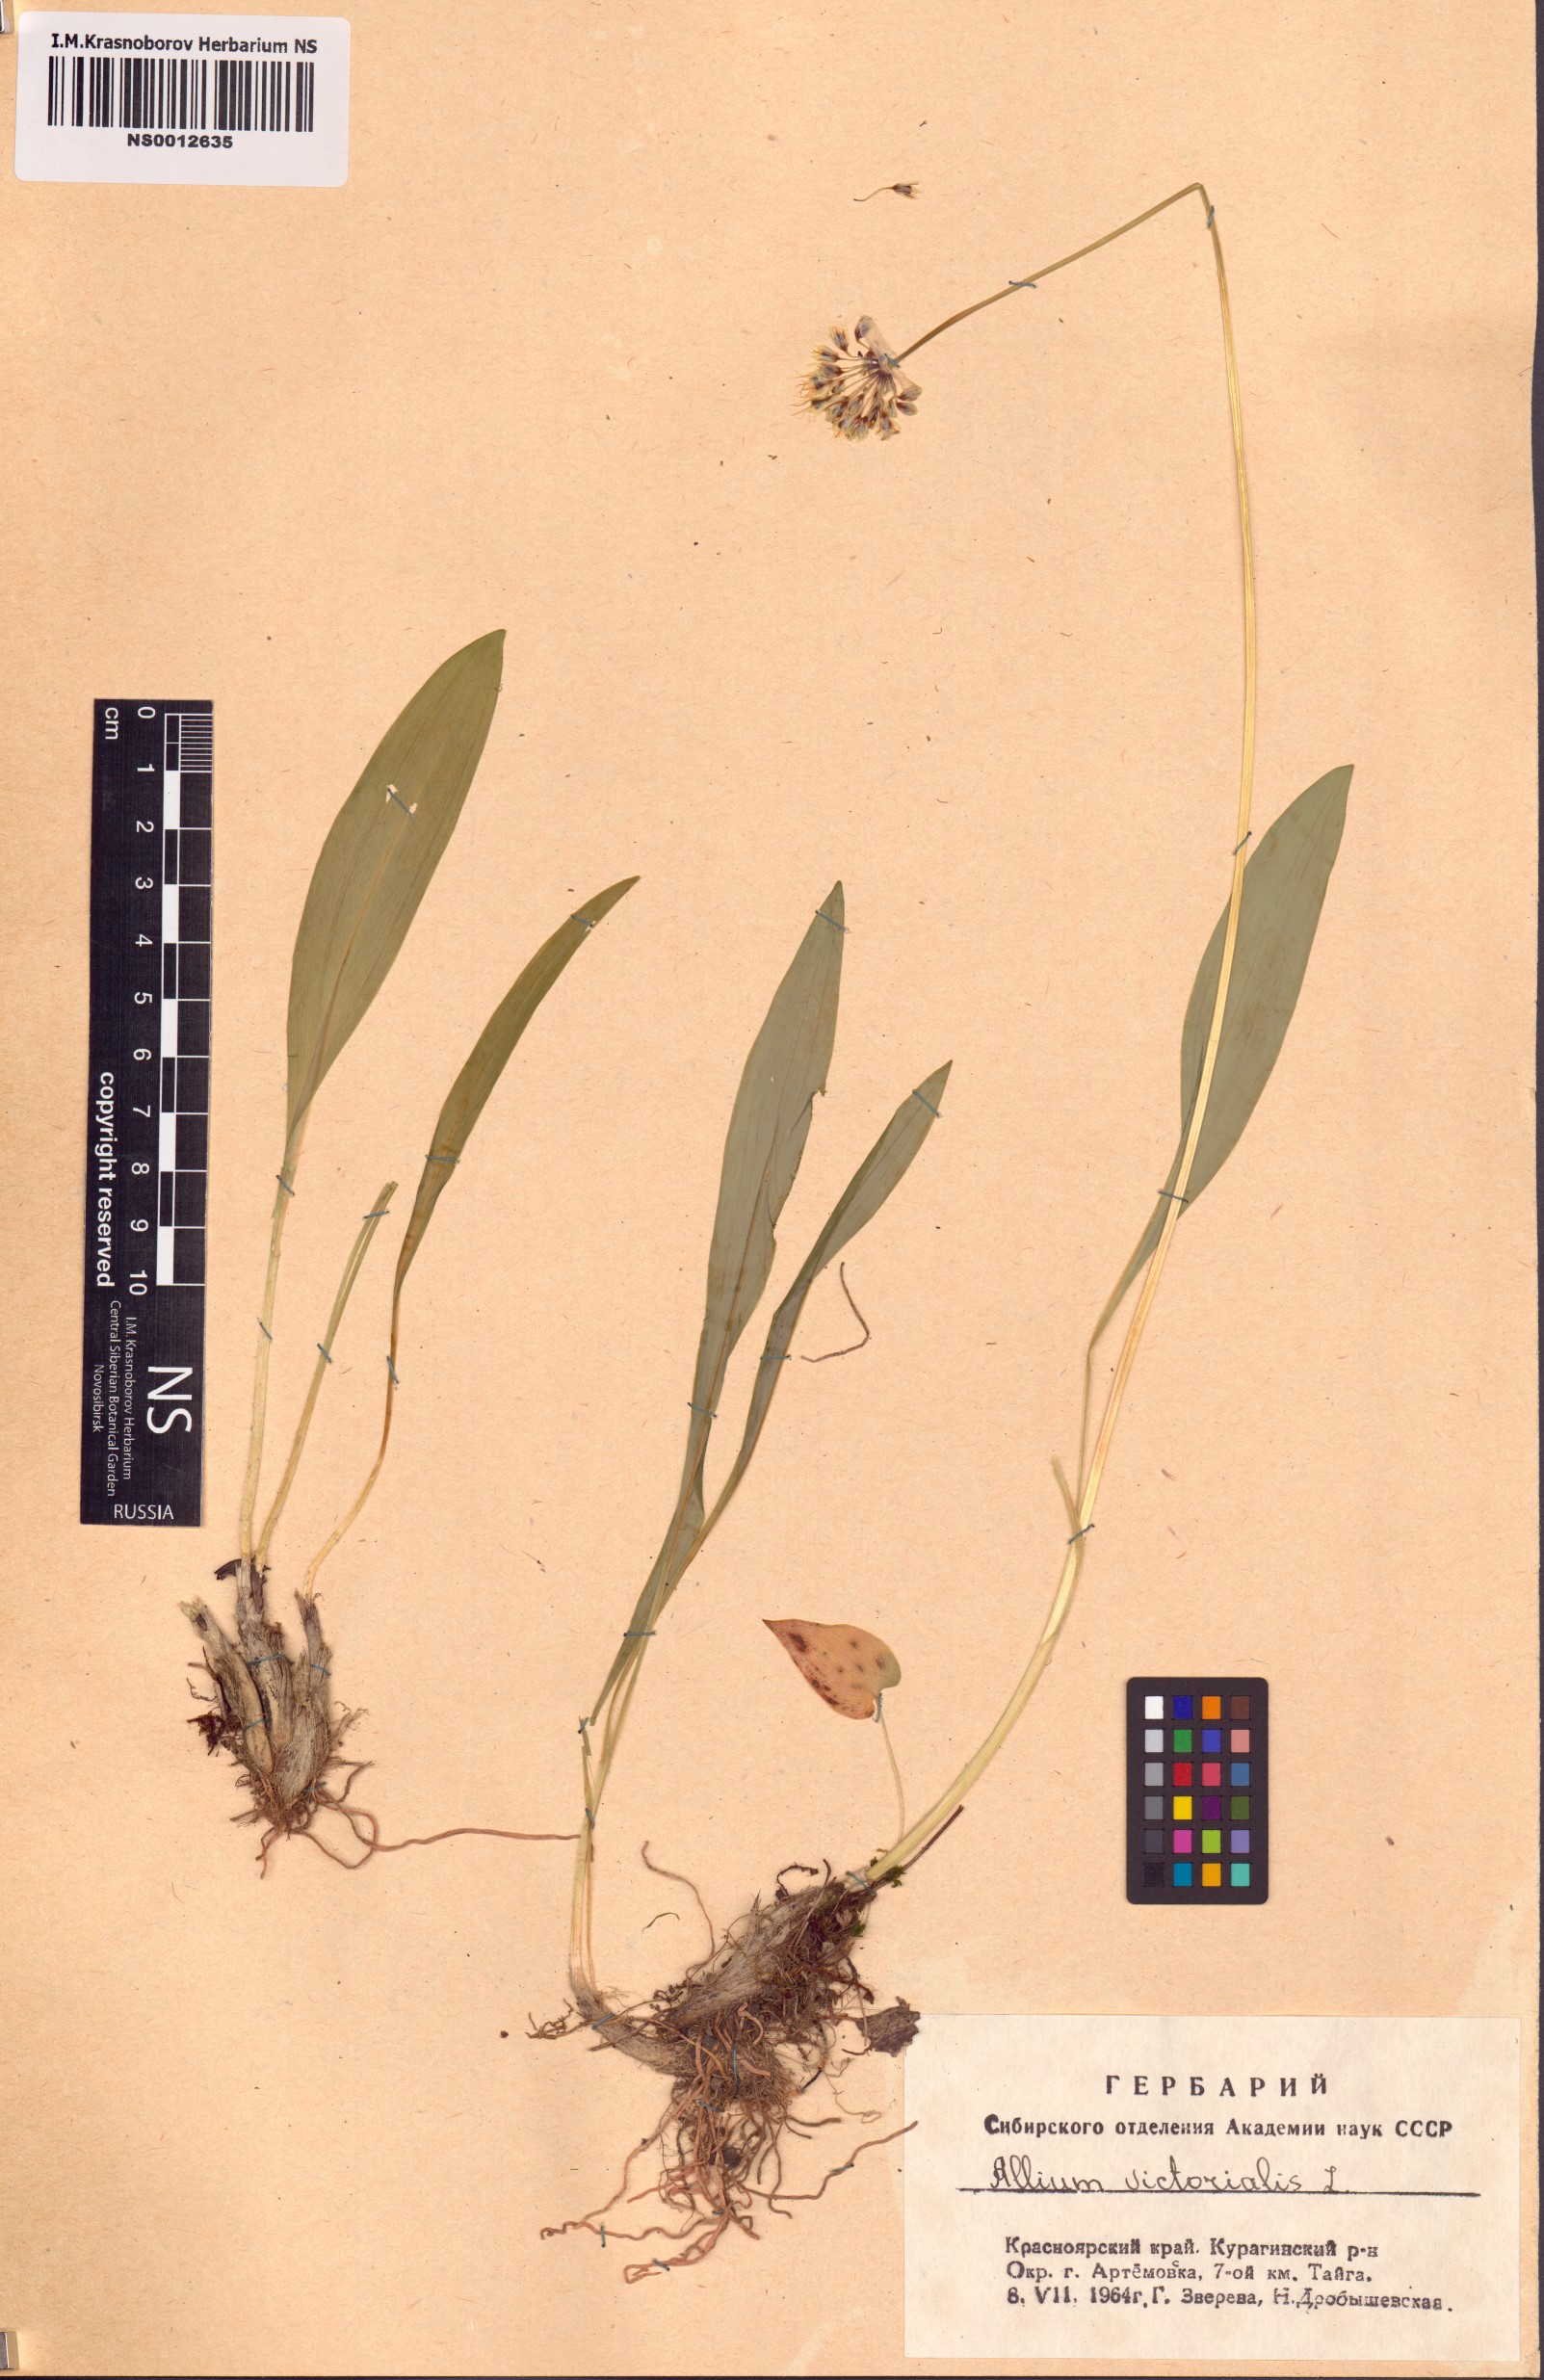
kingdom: Plantae
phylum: Tracheophyta
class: Liliopsida
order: Asparagales
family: Amaryllidaceae
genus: Allium
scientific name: Allium microdictyon
